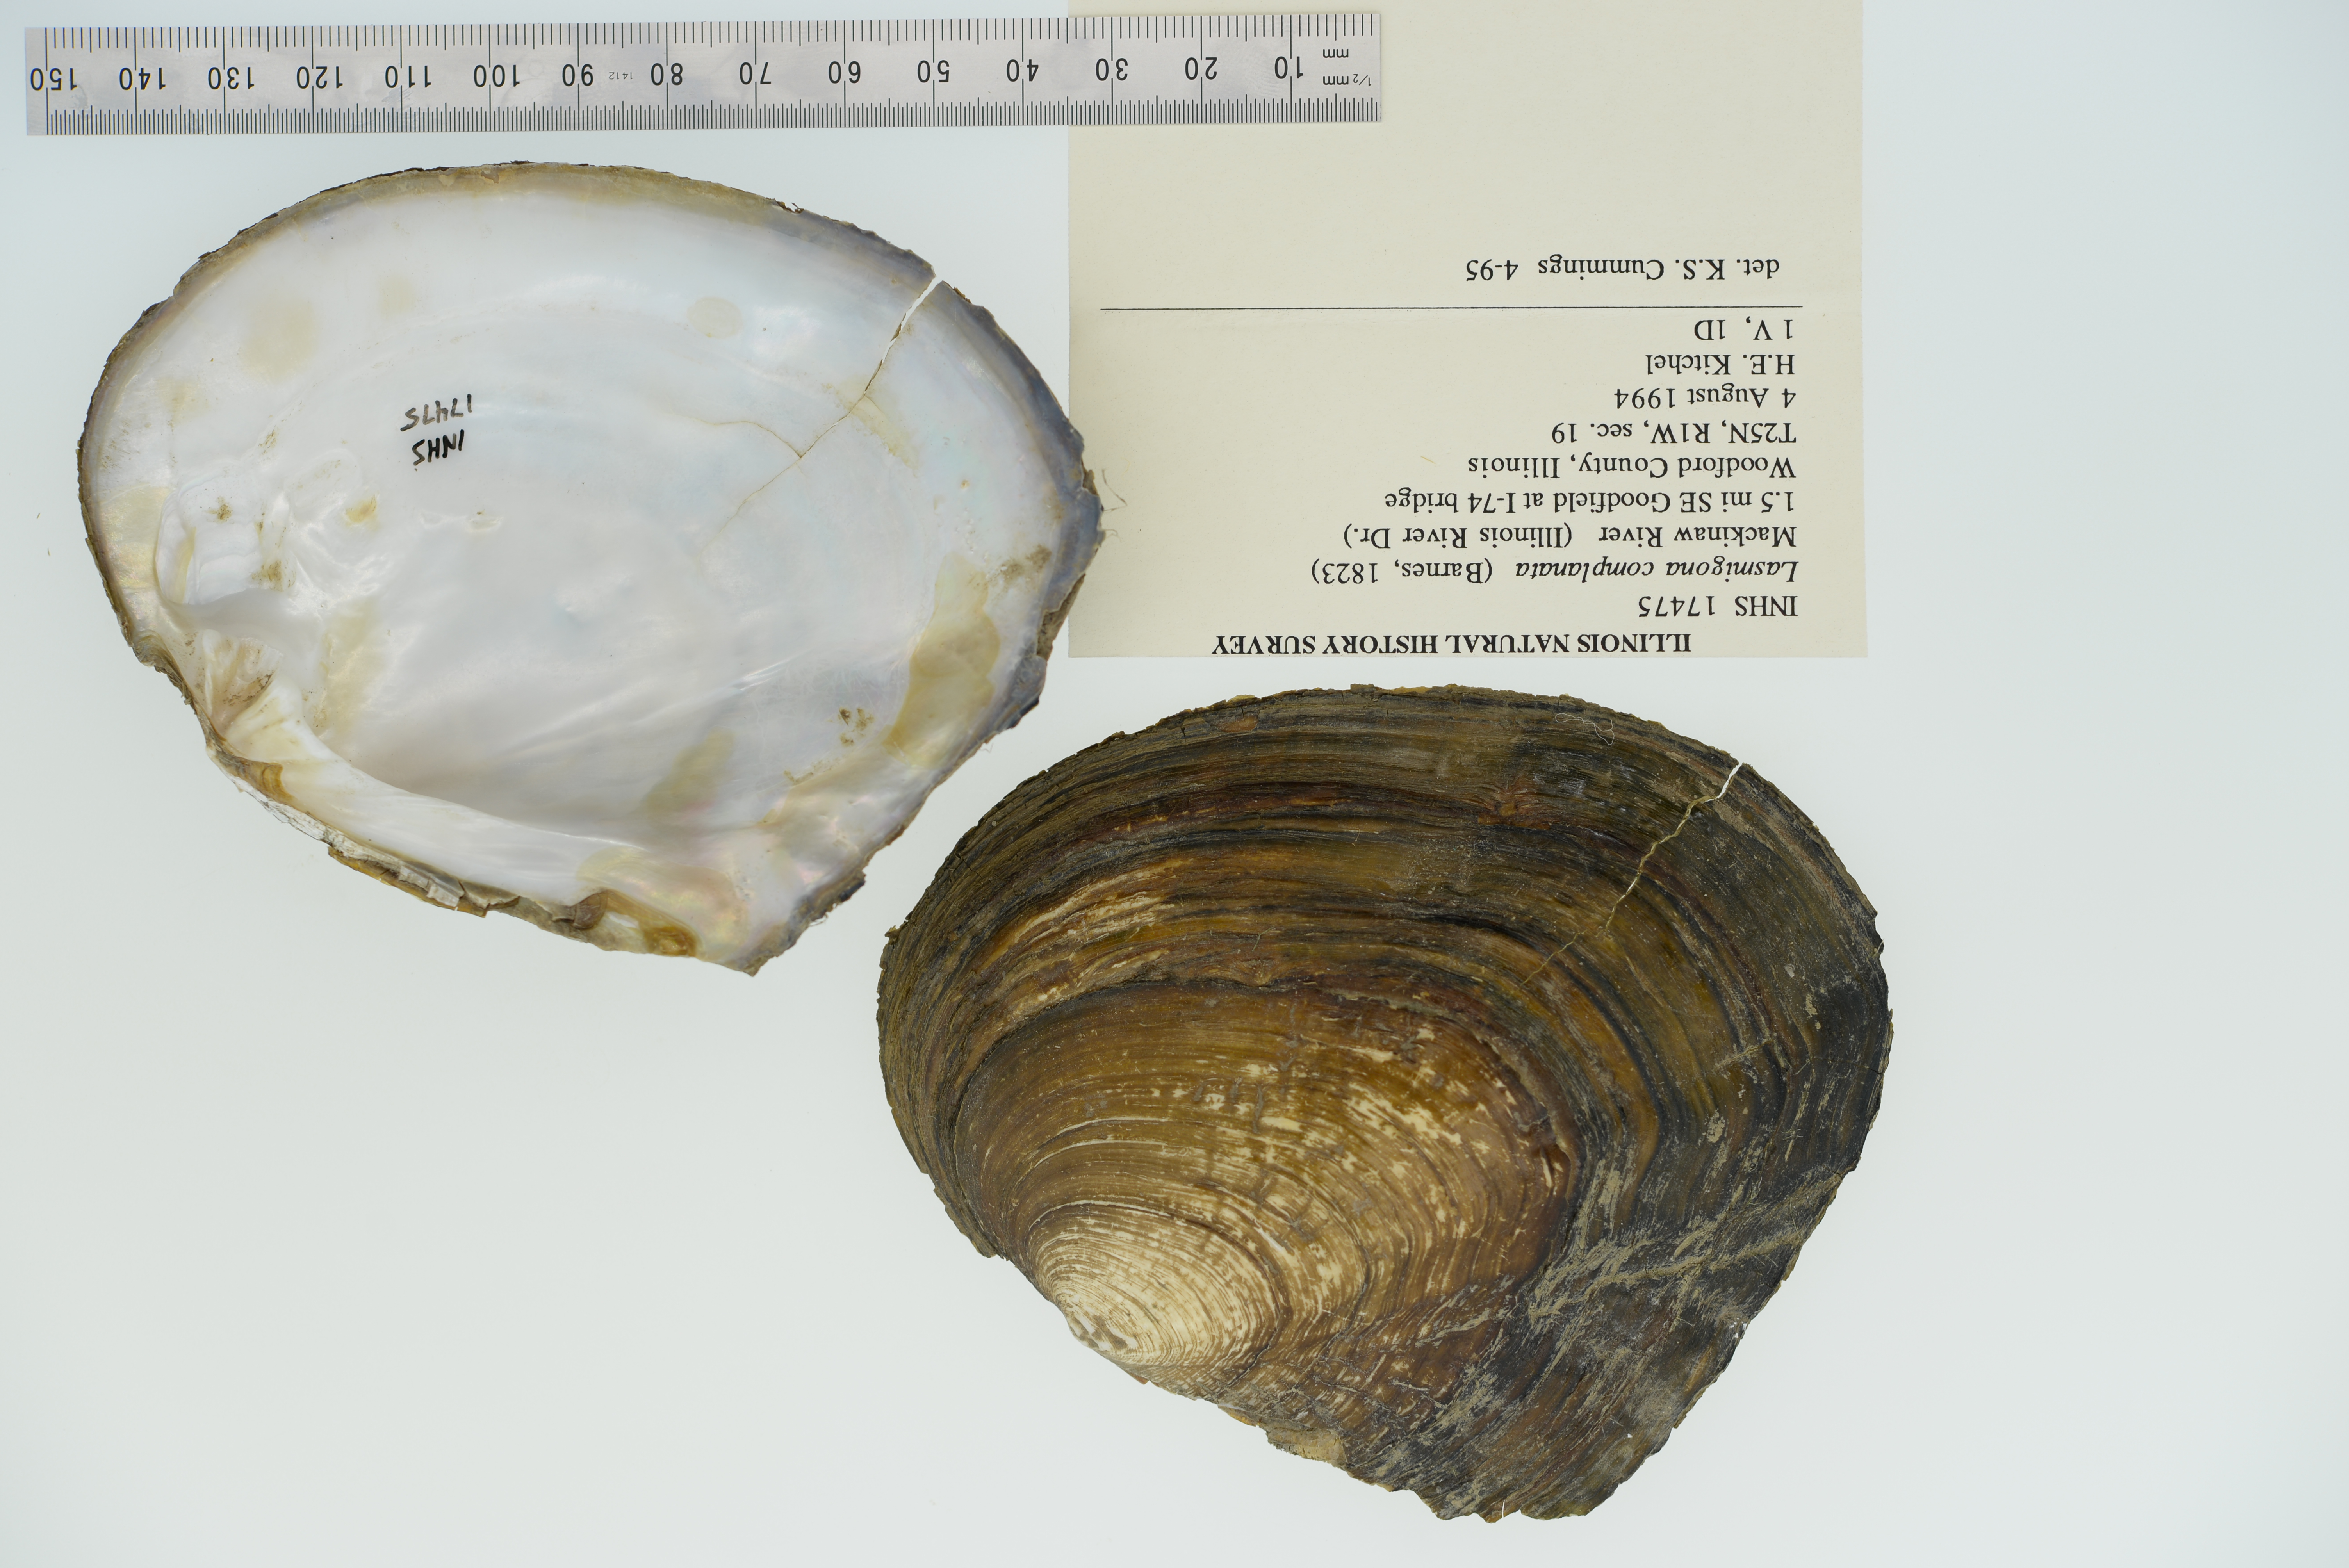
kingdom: Animalia
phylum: Mollusca
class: Bivalvia
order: Unionida
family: Unionidae
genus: Lasmigona
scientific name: Lasmigona complanata
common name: White heelsplitter
